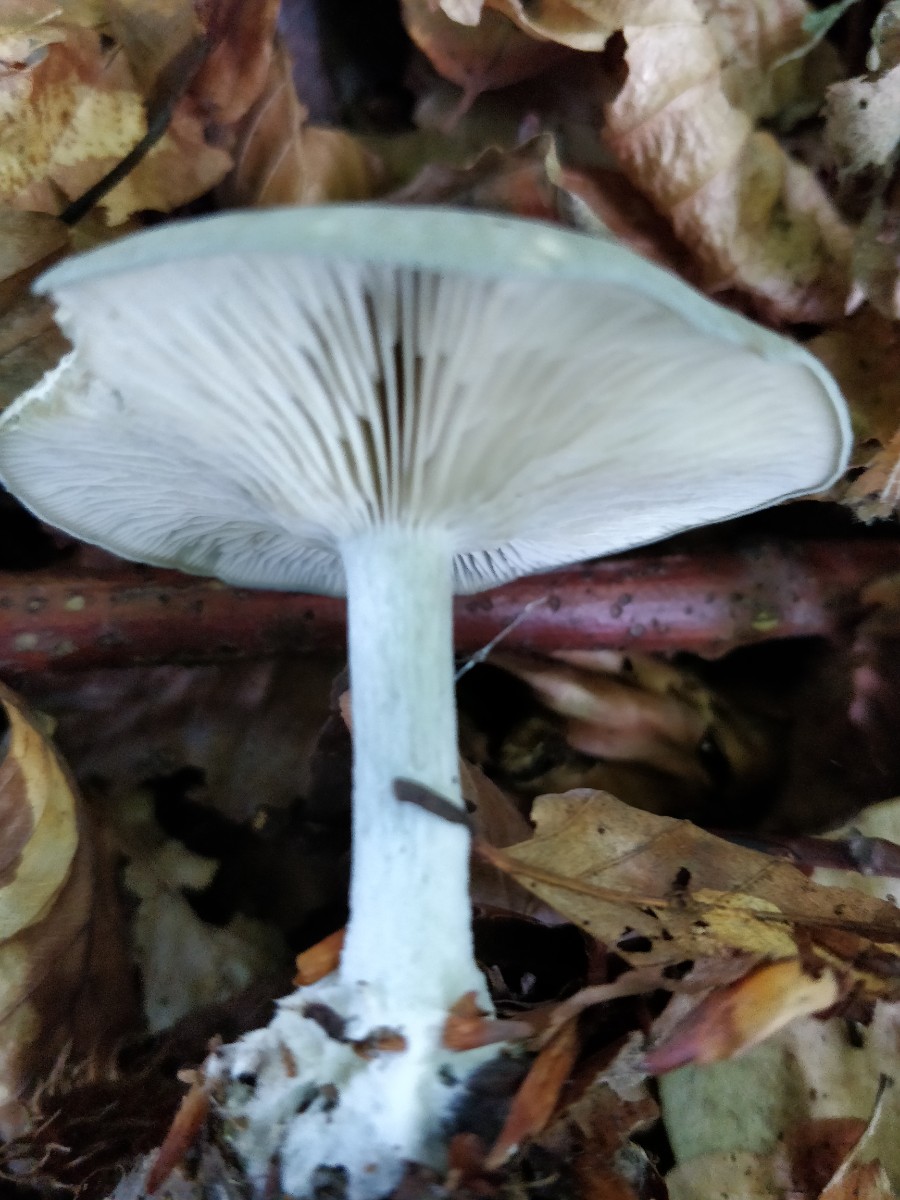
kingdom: Fungi
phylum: Basidiomycota
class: Agaricomycetes
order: Agaricales
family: Tricholomataceae
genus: Clitocybe
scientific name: Clitocybe odora
